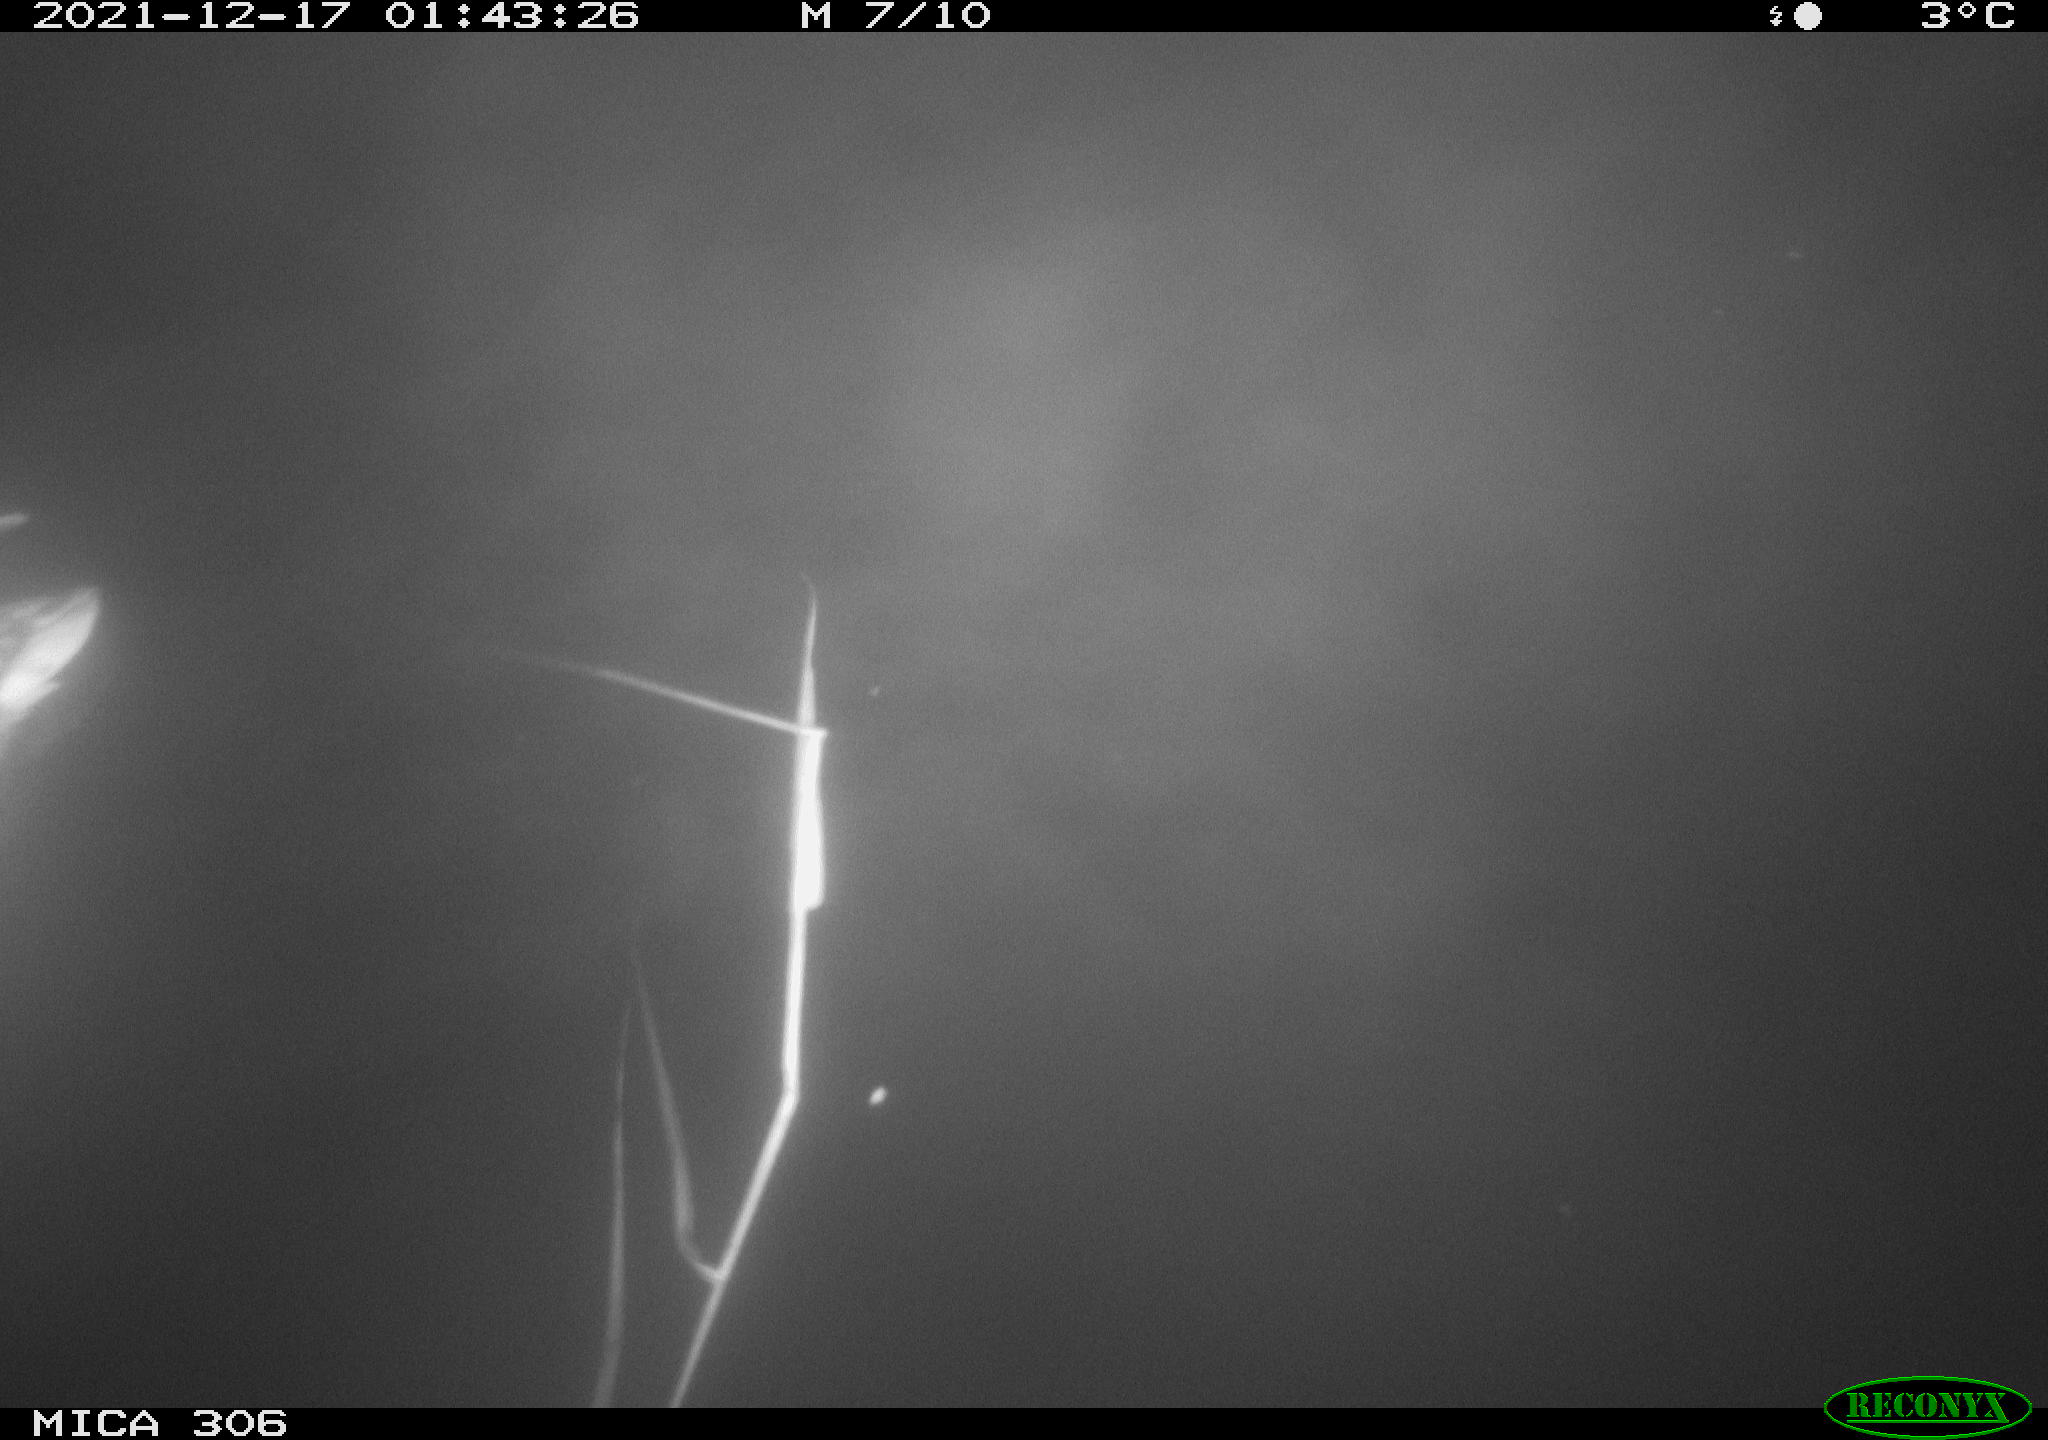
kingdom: Animalia
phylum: Chordata
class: Aves
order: Anseriformes
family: Anatidae
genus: Anas
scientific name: Anas
